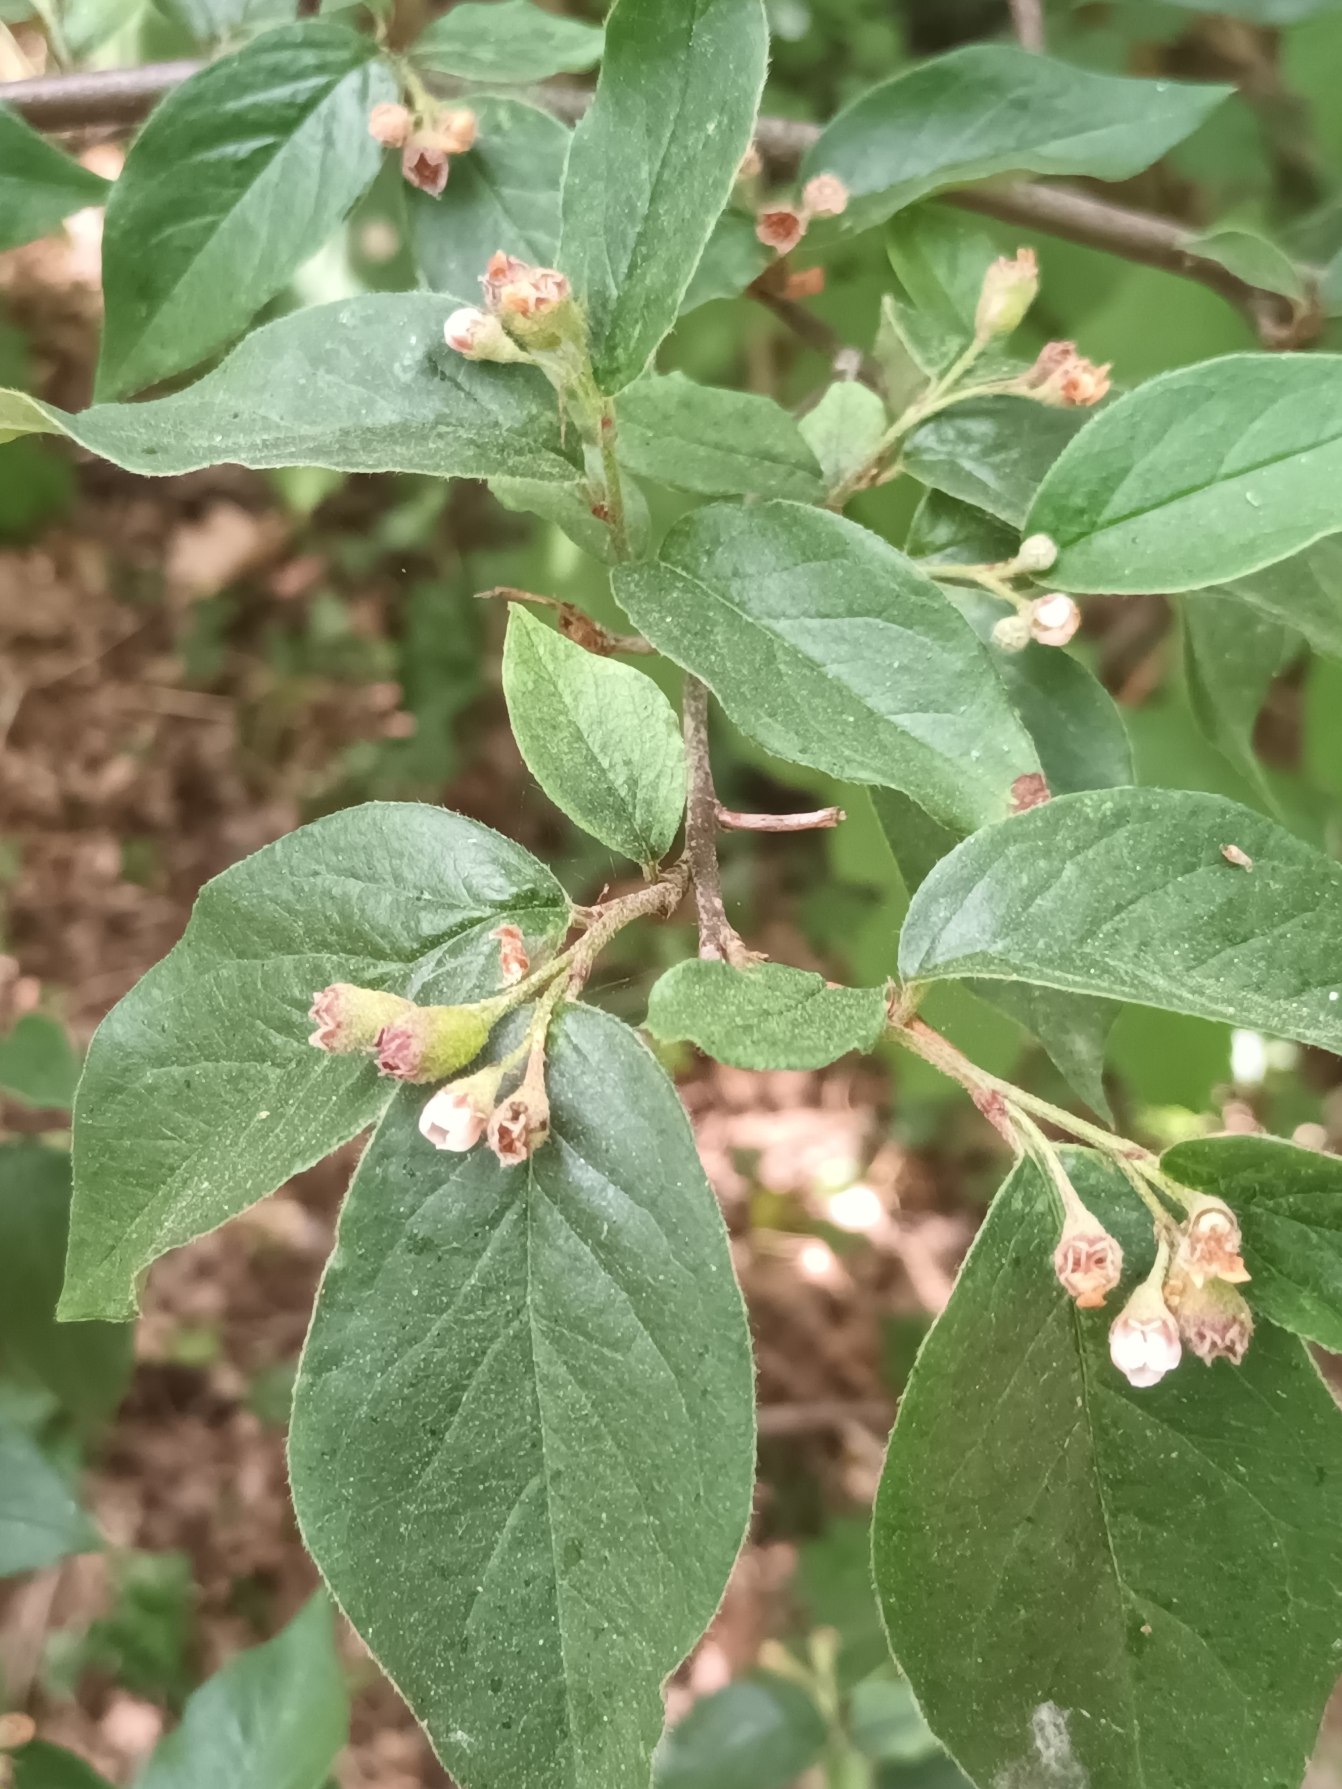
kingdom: Plantae
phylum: Tracheophyta
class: Magnoliopsida
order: Rosales
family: Rosaceae
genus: Cotoneaster
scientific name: Cotoneaster ambiguus
